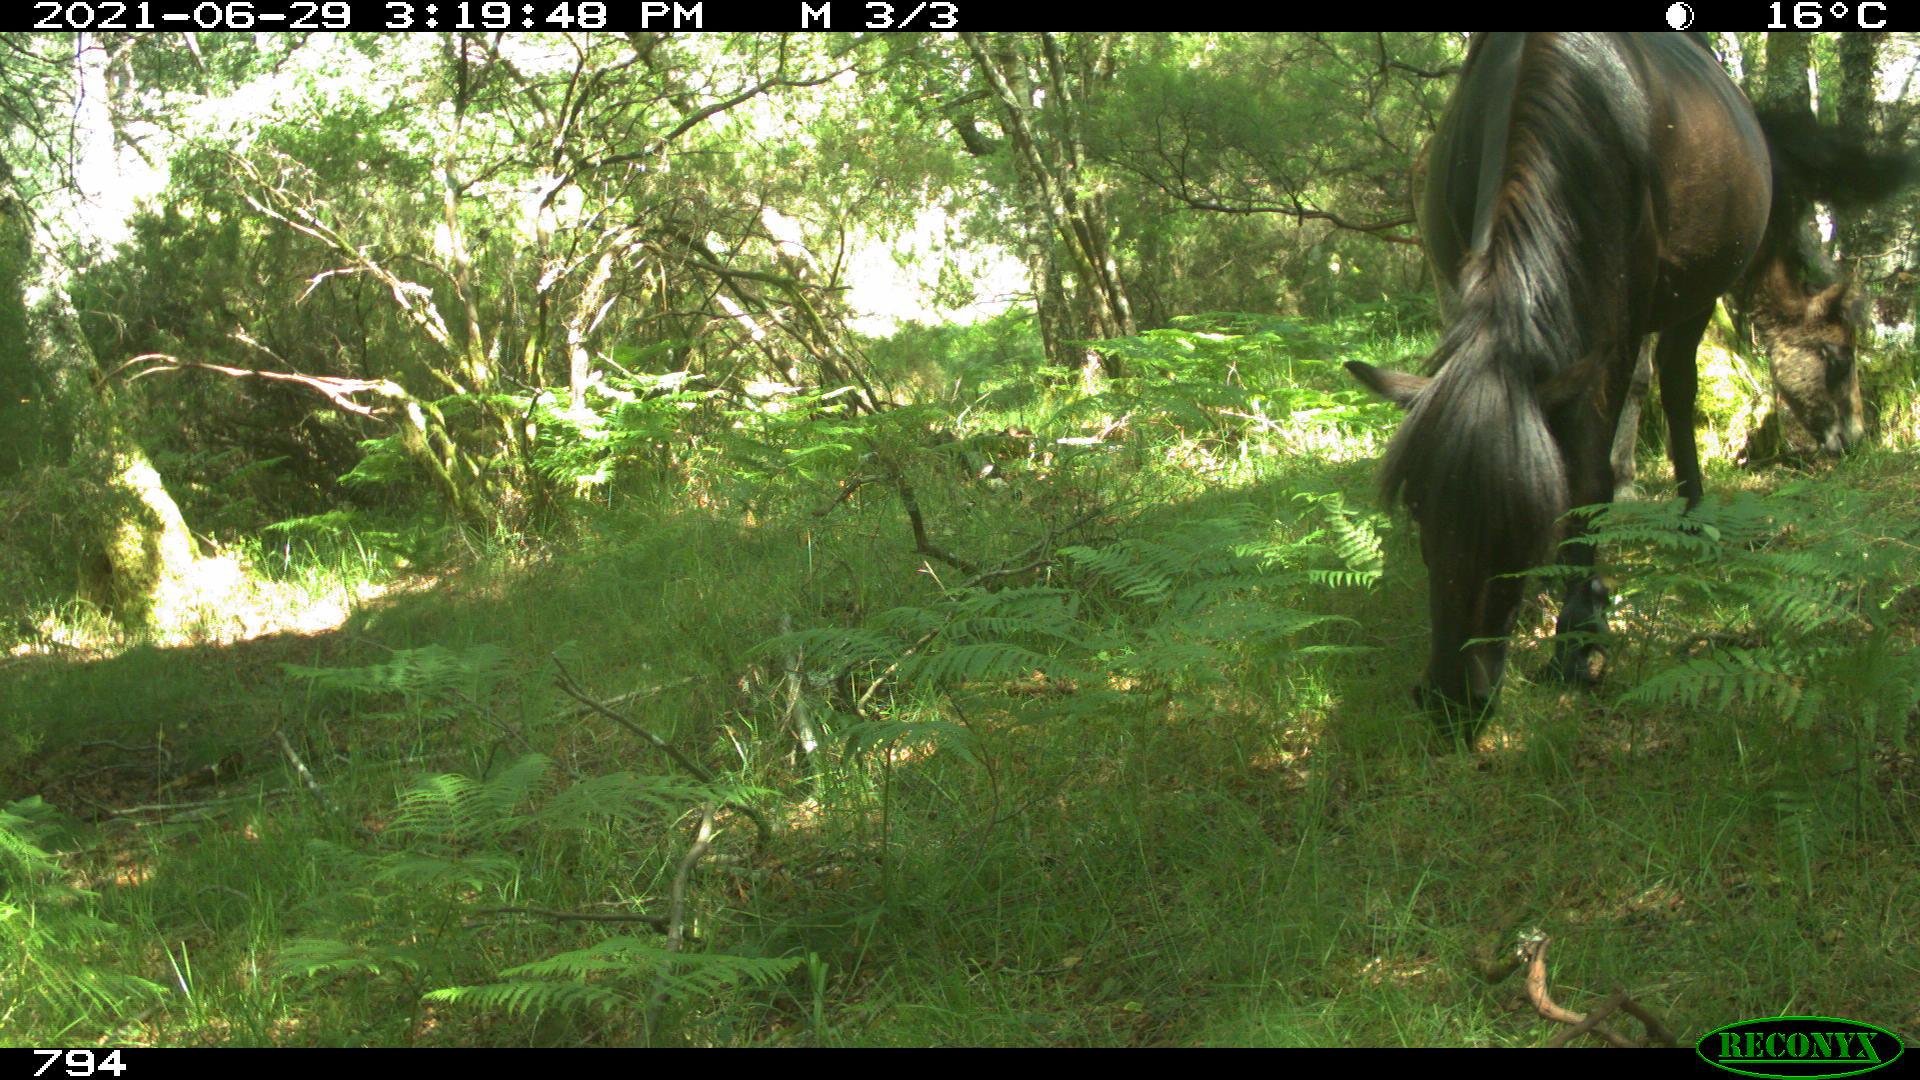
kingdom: Animalia
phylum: Chordata
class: Mammalia
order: Perissodactyla
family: Equidae
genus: Equus
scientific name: Equus caballus
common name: Horse
